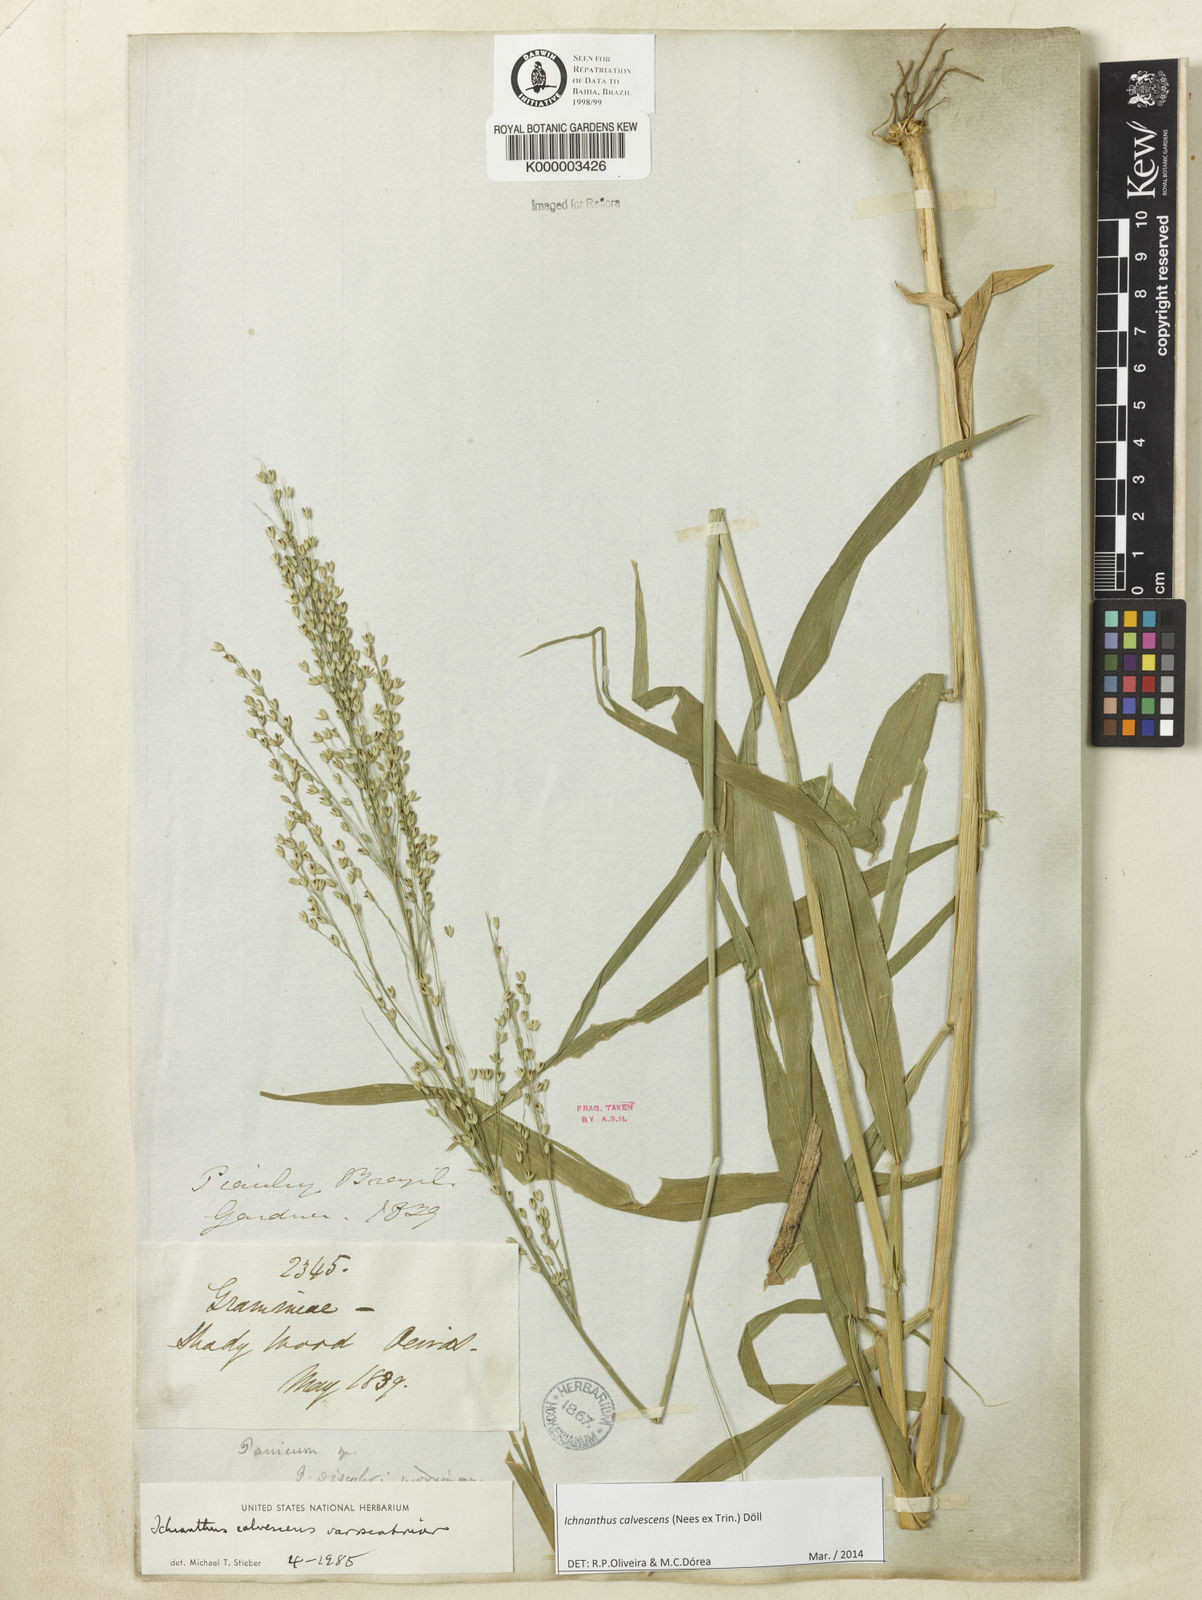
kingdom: Plantae
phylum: Tracheophyta
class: Liliopsida
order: Poales
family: Poaceae
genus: Ichnanthus
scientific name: Ichnanthus
